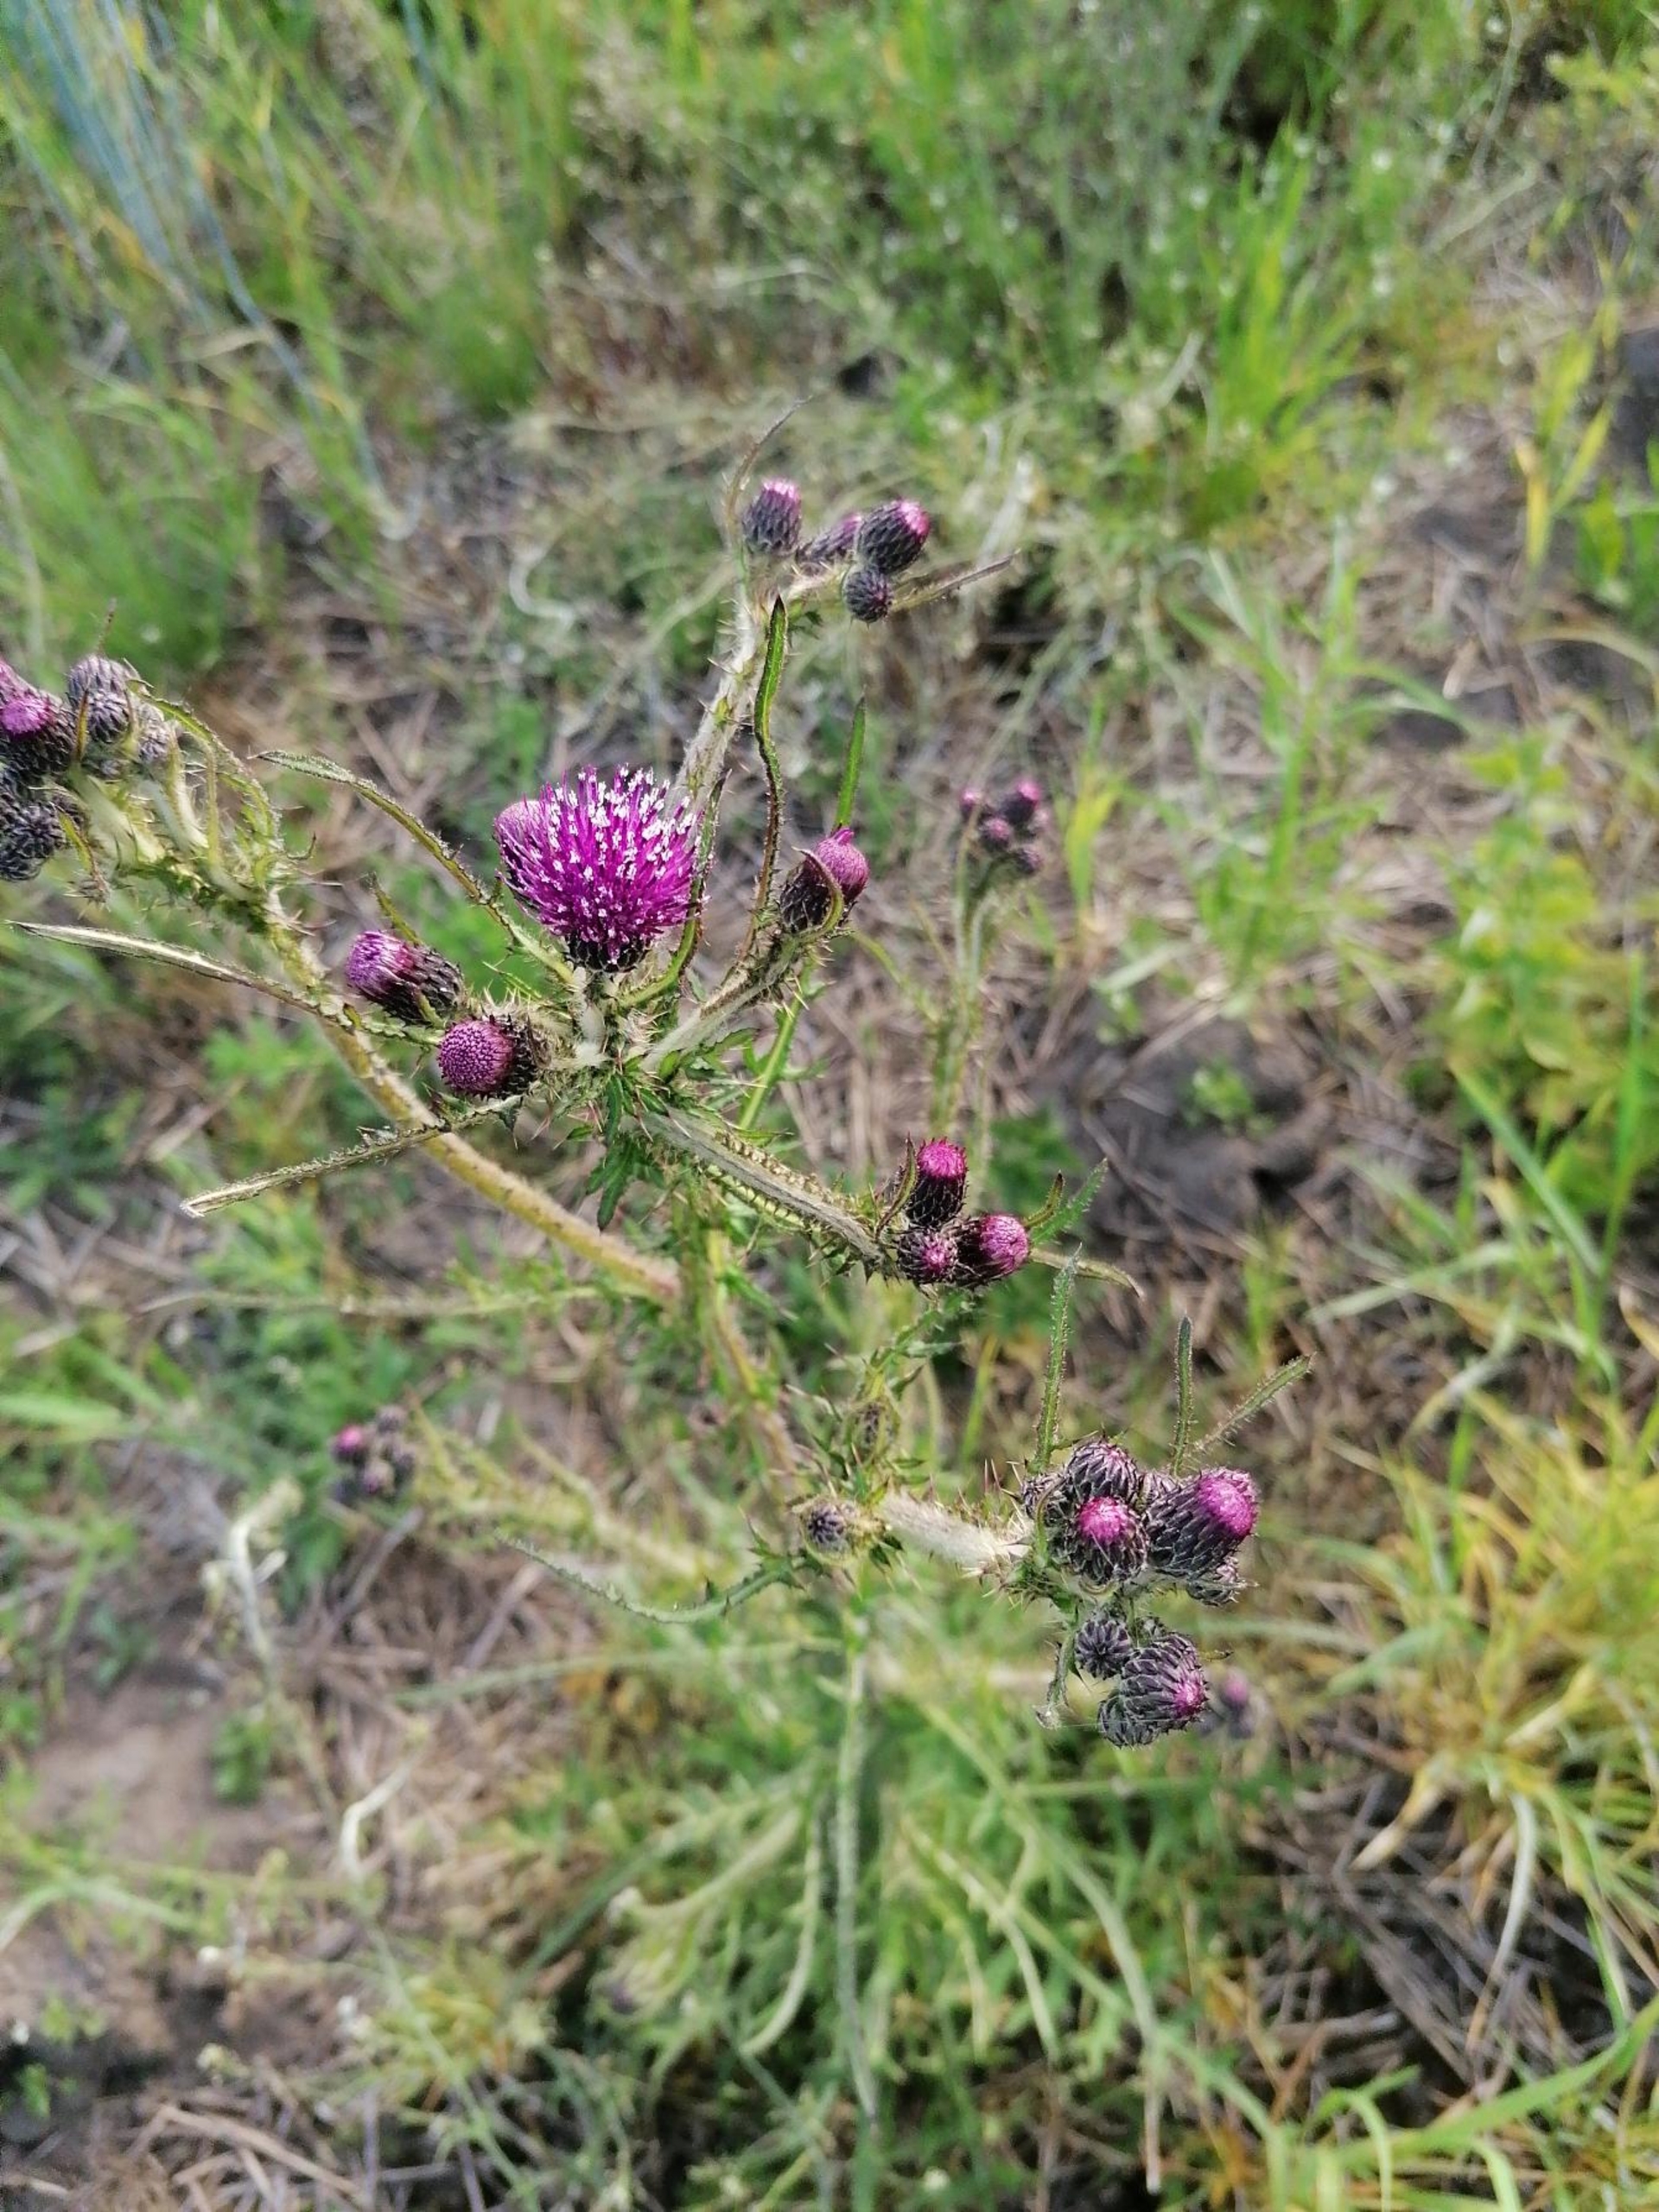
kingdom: Plantae
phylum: Tracheophyta
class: Magnoliopsida
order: Asterales
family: Asteraceae
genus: Cirsium
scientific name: Cirsium palustre
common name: Kær-tidsel
